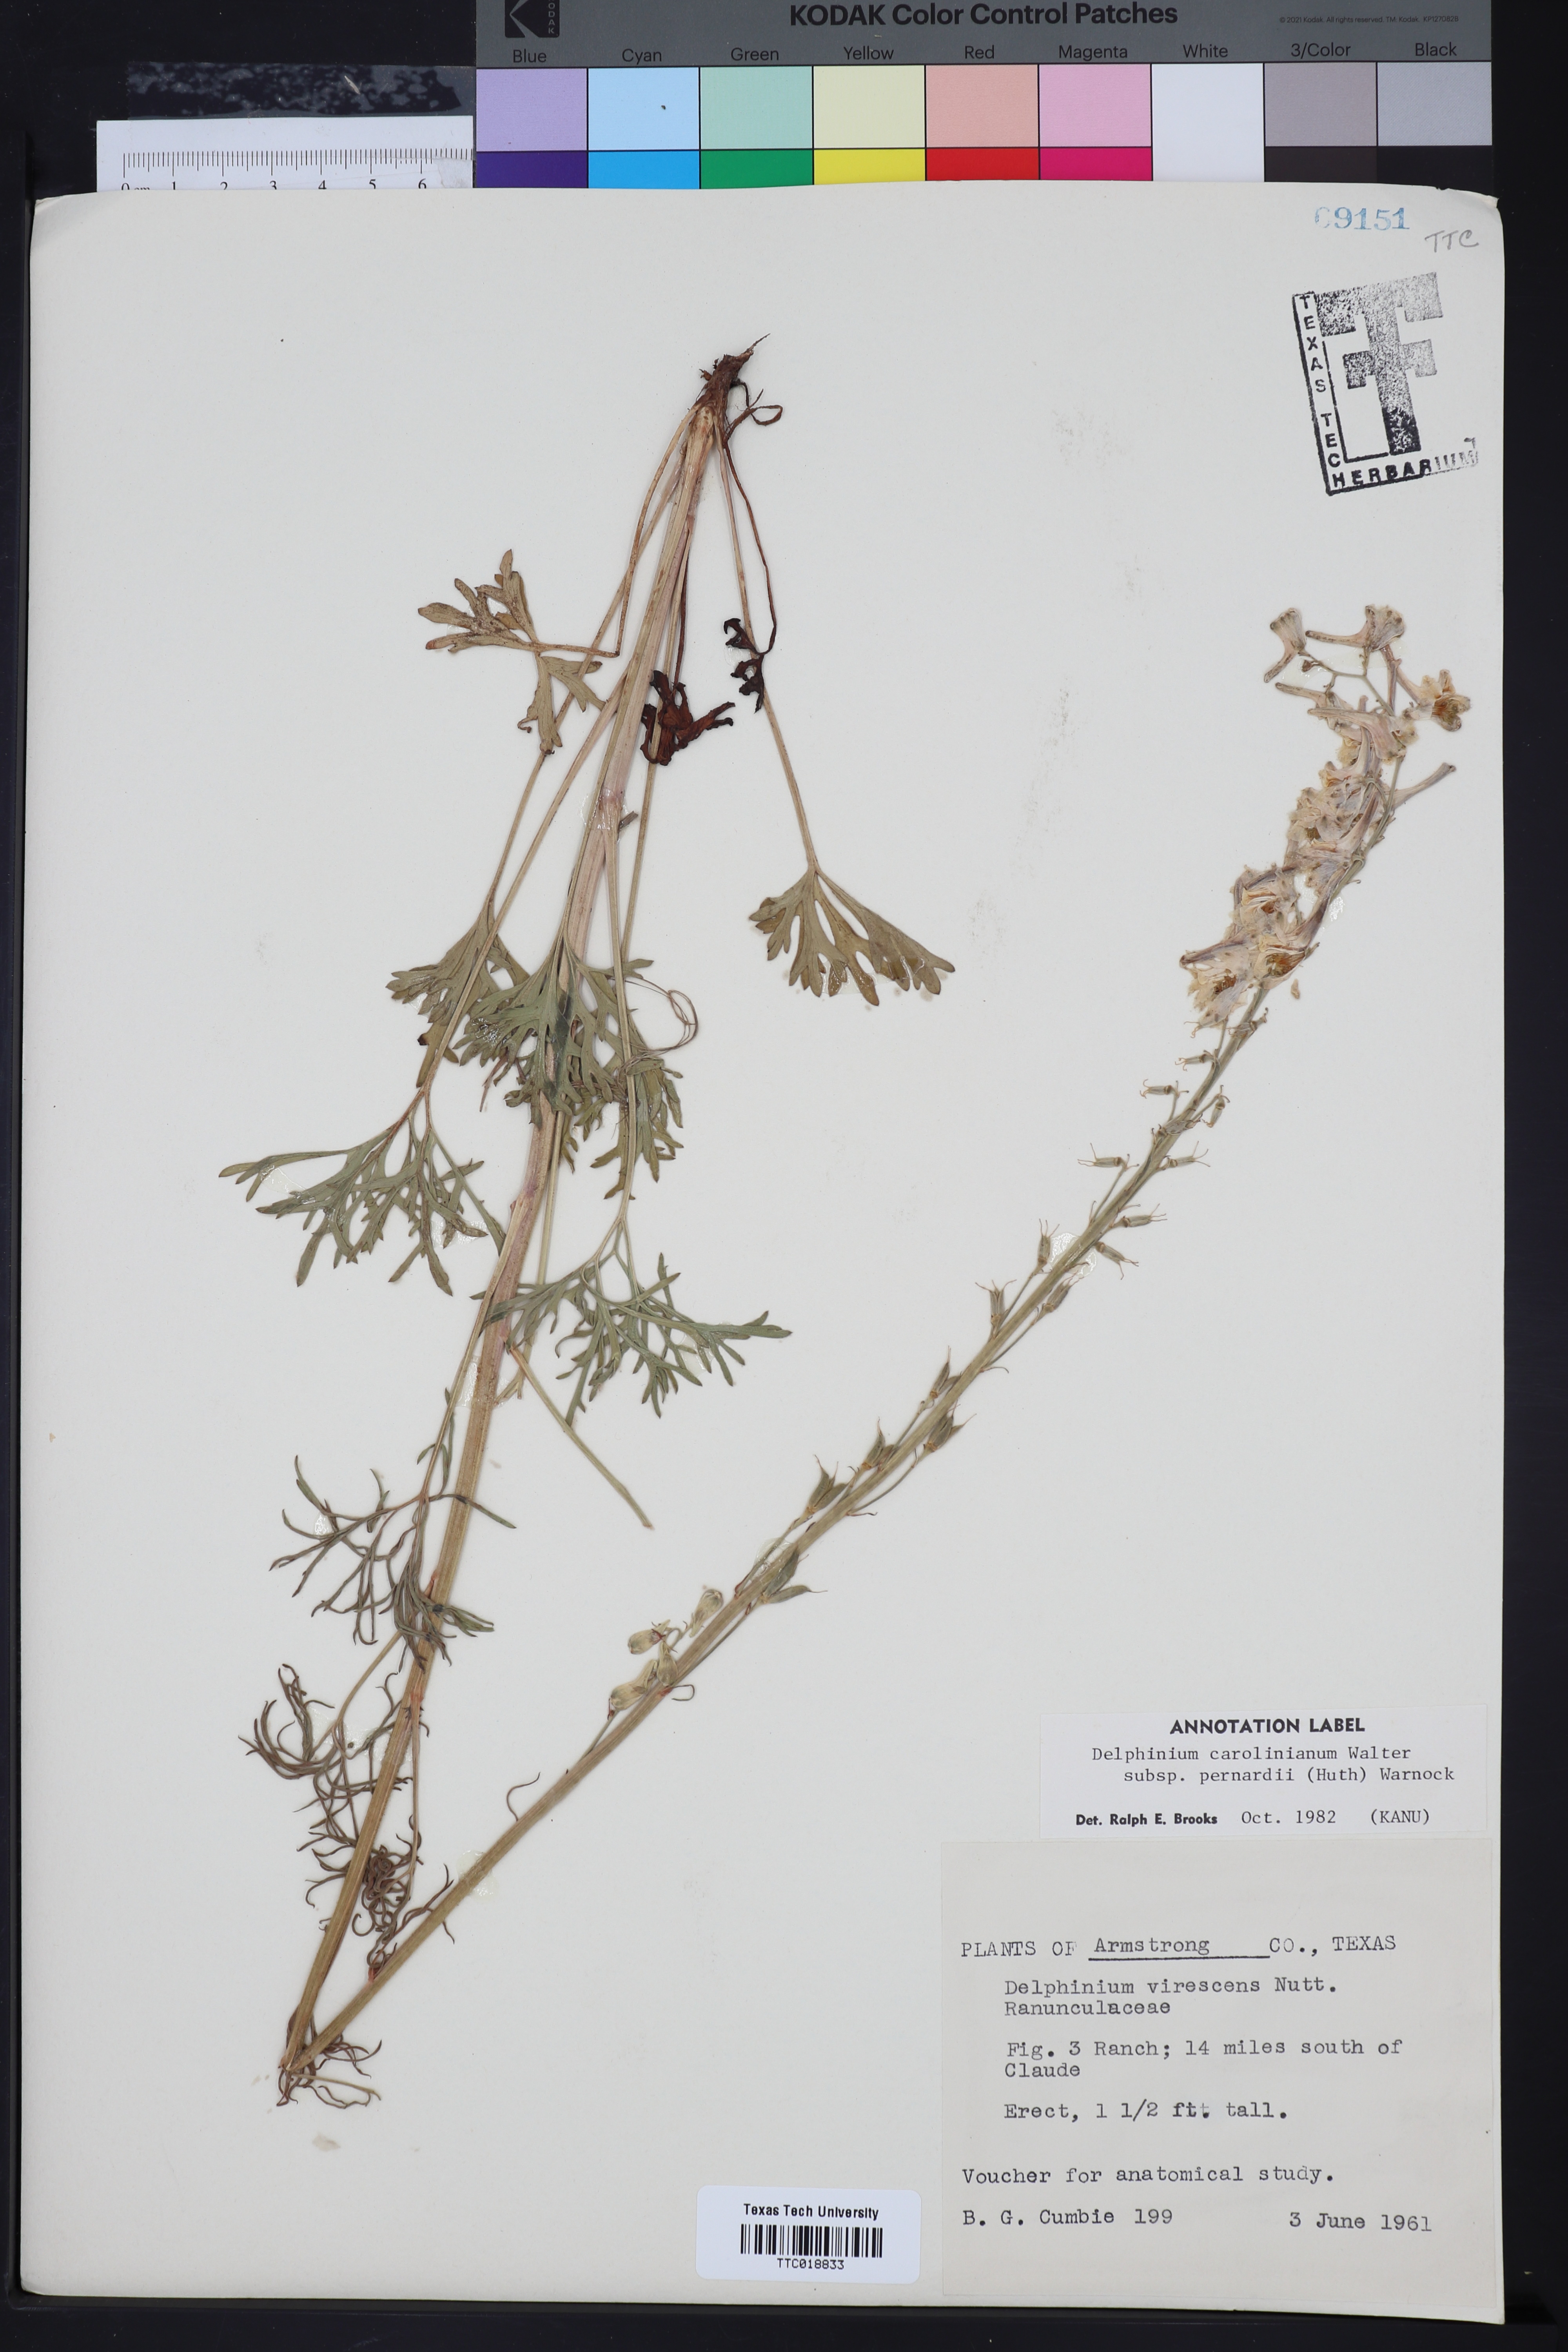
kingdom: Plantae
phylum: Tracheophyta
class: Magnoliopsida
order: Ranunculales
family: Ranunculaceae
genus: Delphinium
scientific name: Delphinium carolinianum
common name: Carolina larkspur
